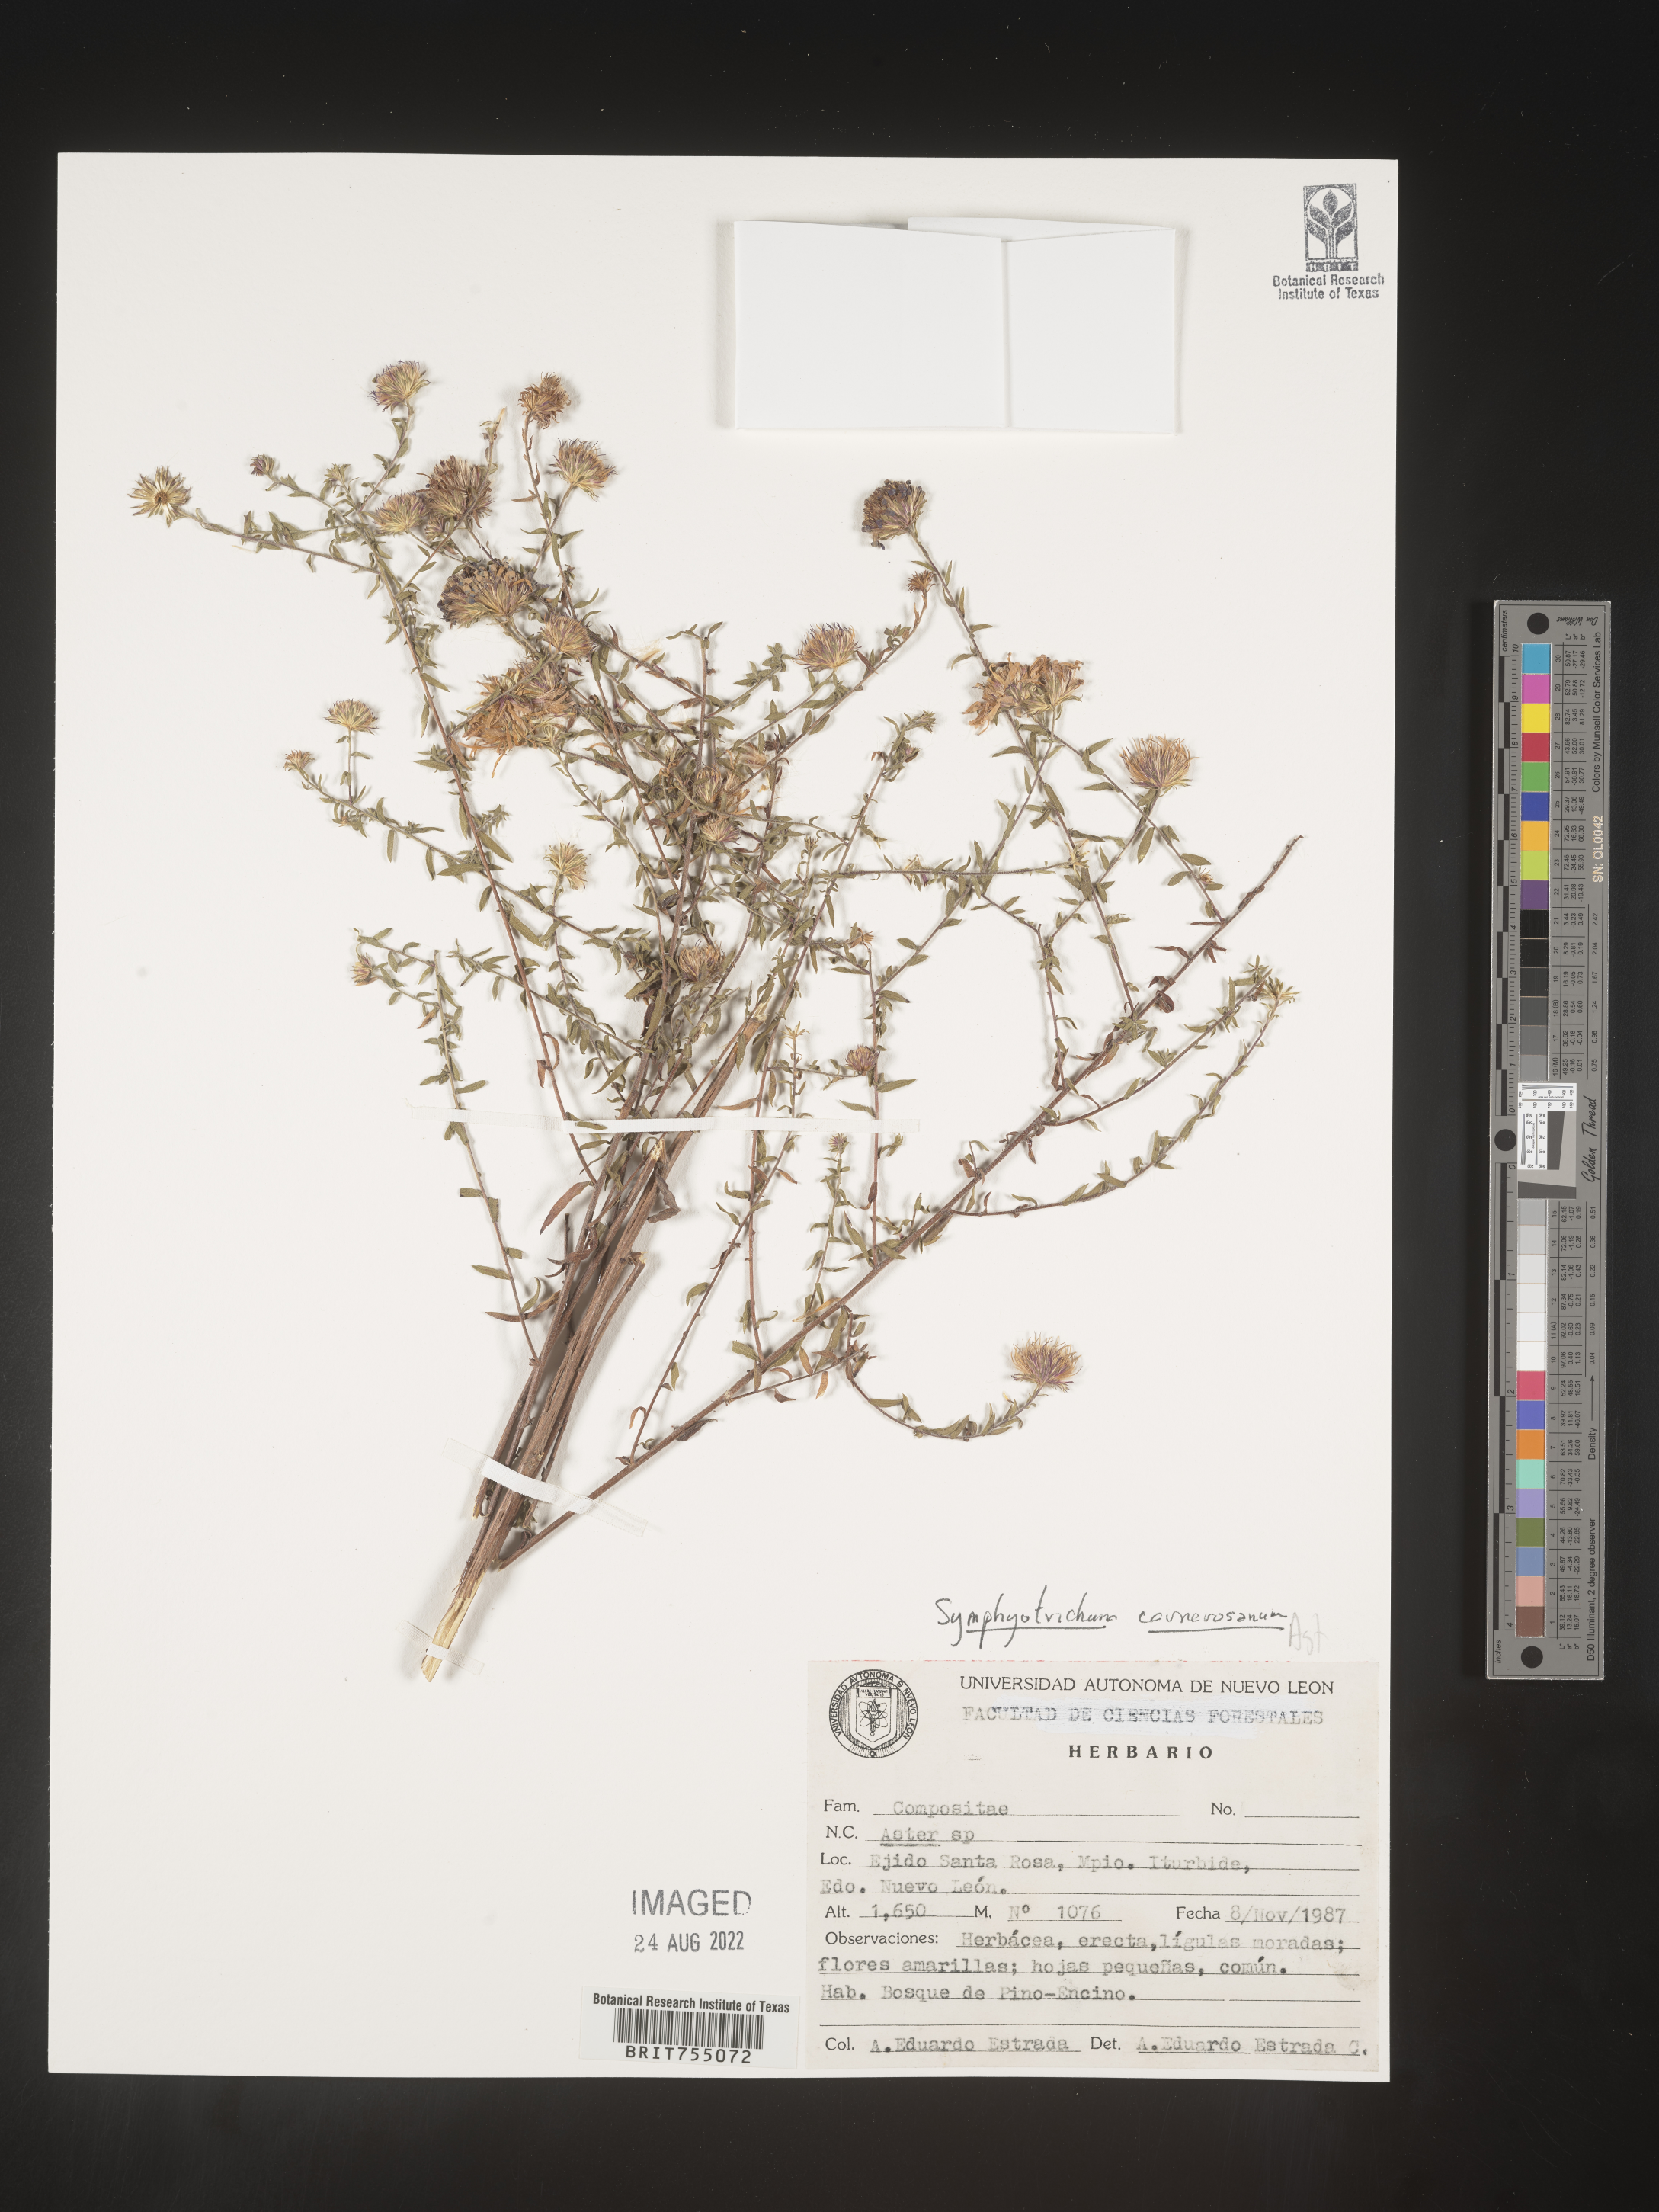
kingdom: Plantae
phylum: Tracheophyta
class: Magnoliopsida
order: Asterales
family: Asteraceae
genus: Symphyotrichum
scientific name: Symphyotrichum carnerosanum
